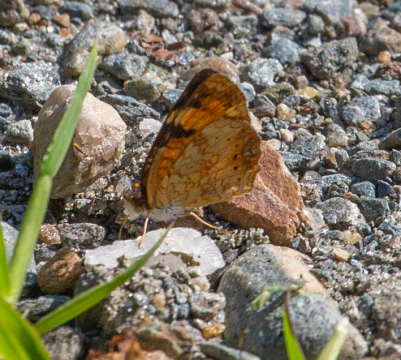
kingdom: Animalia
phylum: Arthropoda
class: Insecta
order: Lepidoptera
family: Nymphalidae
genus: Phyciodes
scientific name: Phyciodes
